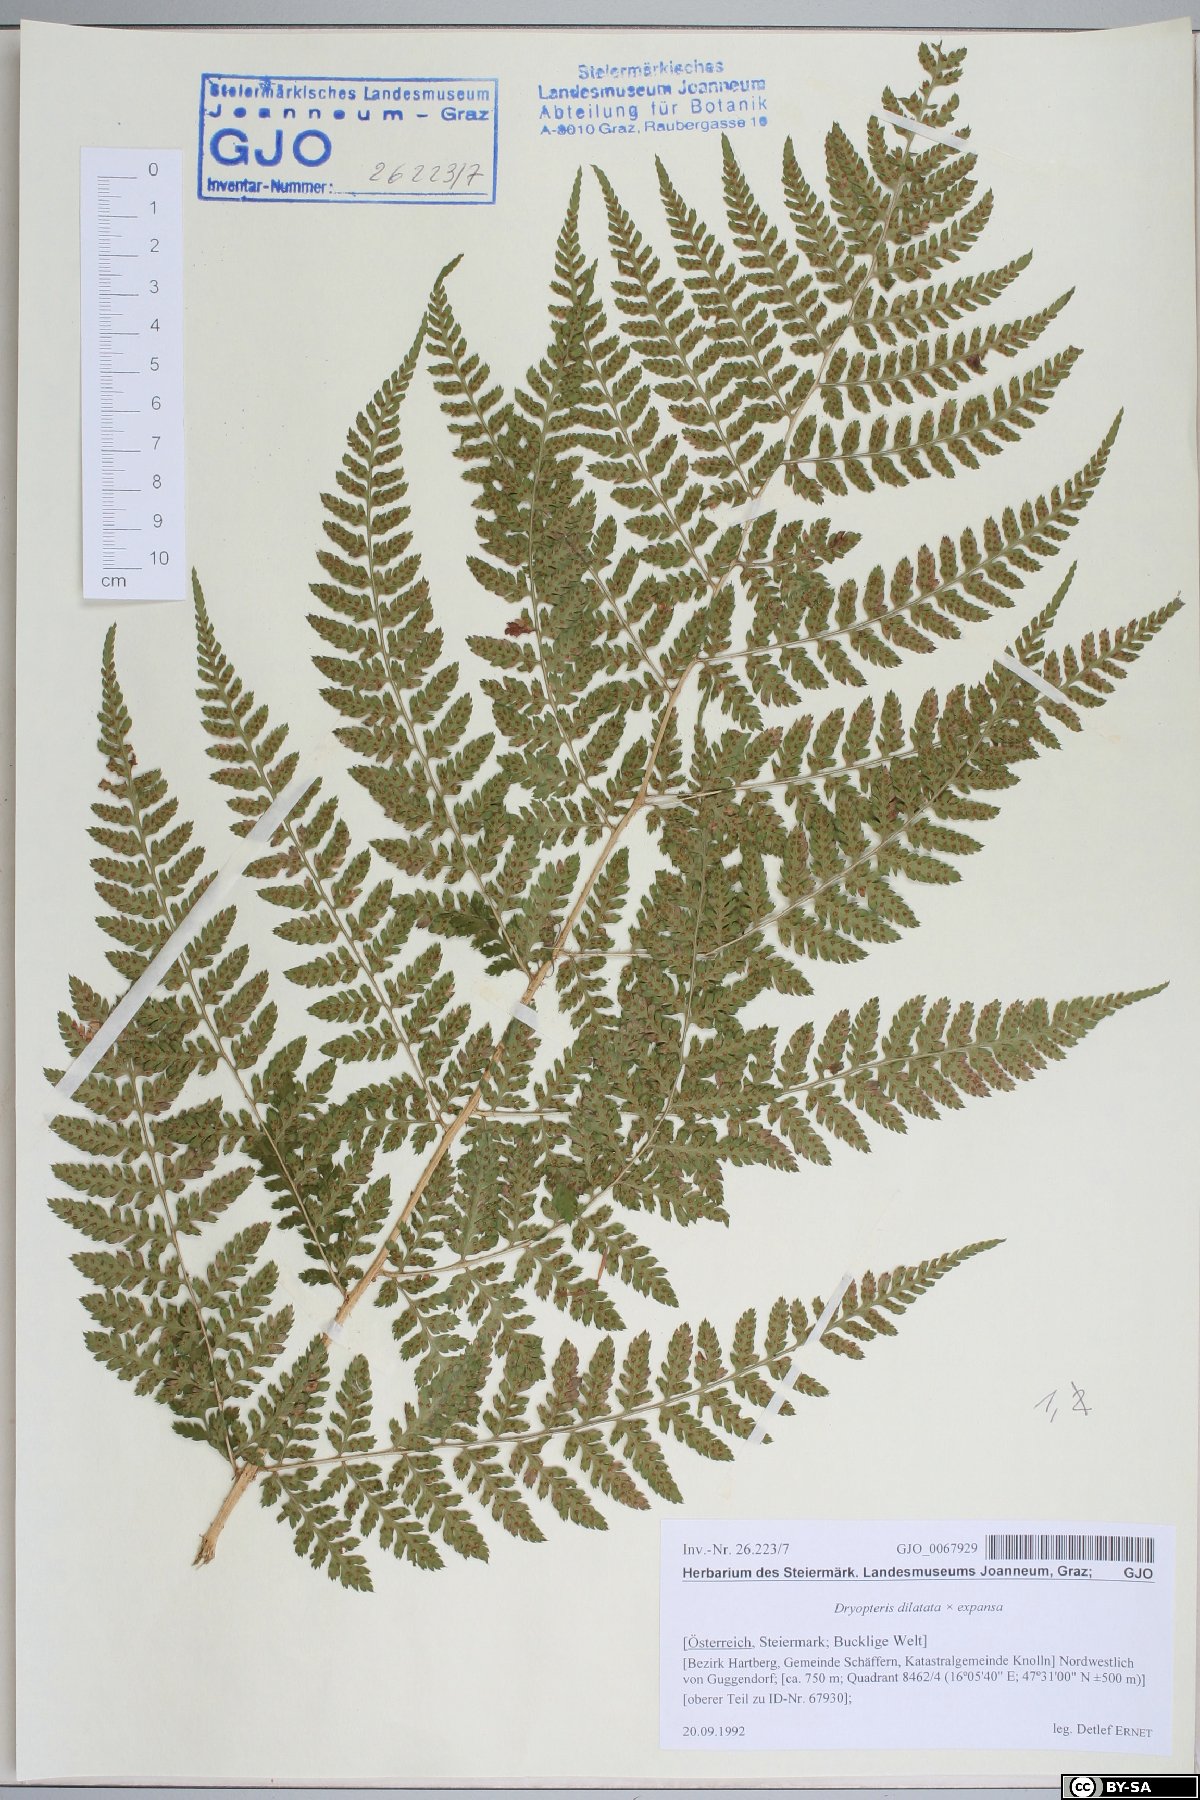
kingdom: Plantae
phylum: Tracheophyta
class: Polypodiopsida
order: Polypodiales
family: Dryopteridaceae
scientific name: Dryopteridaceae
